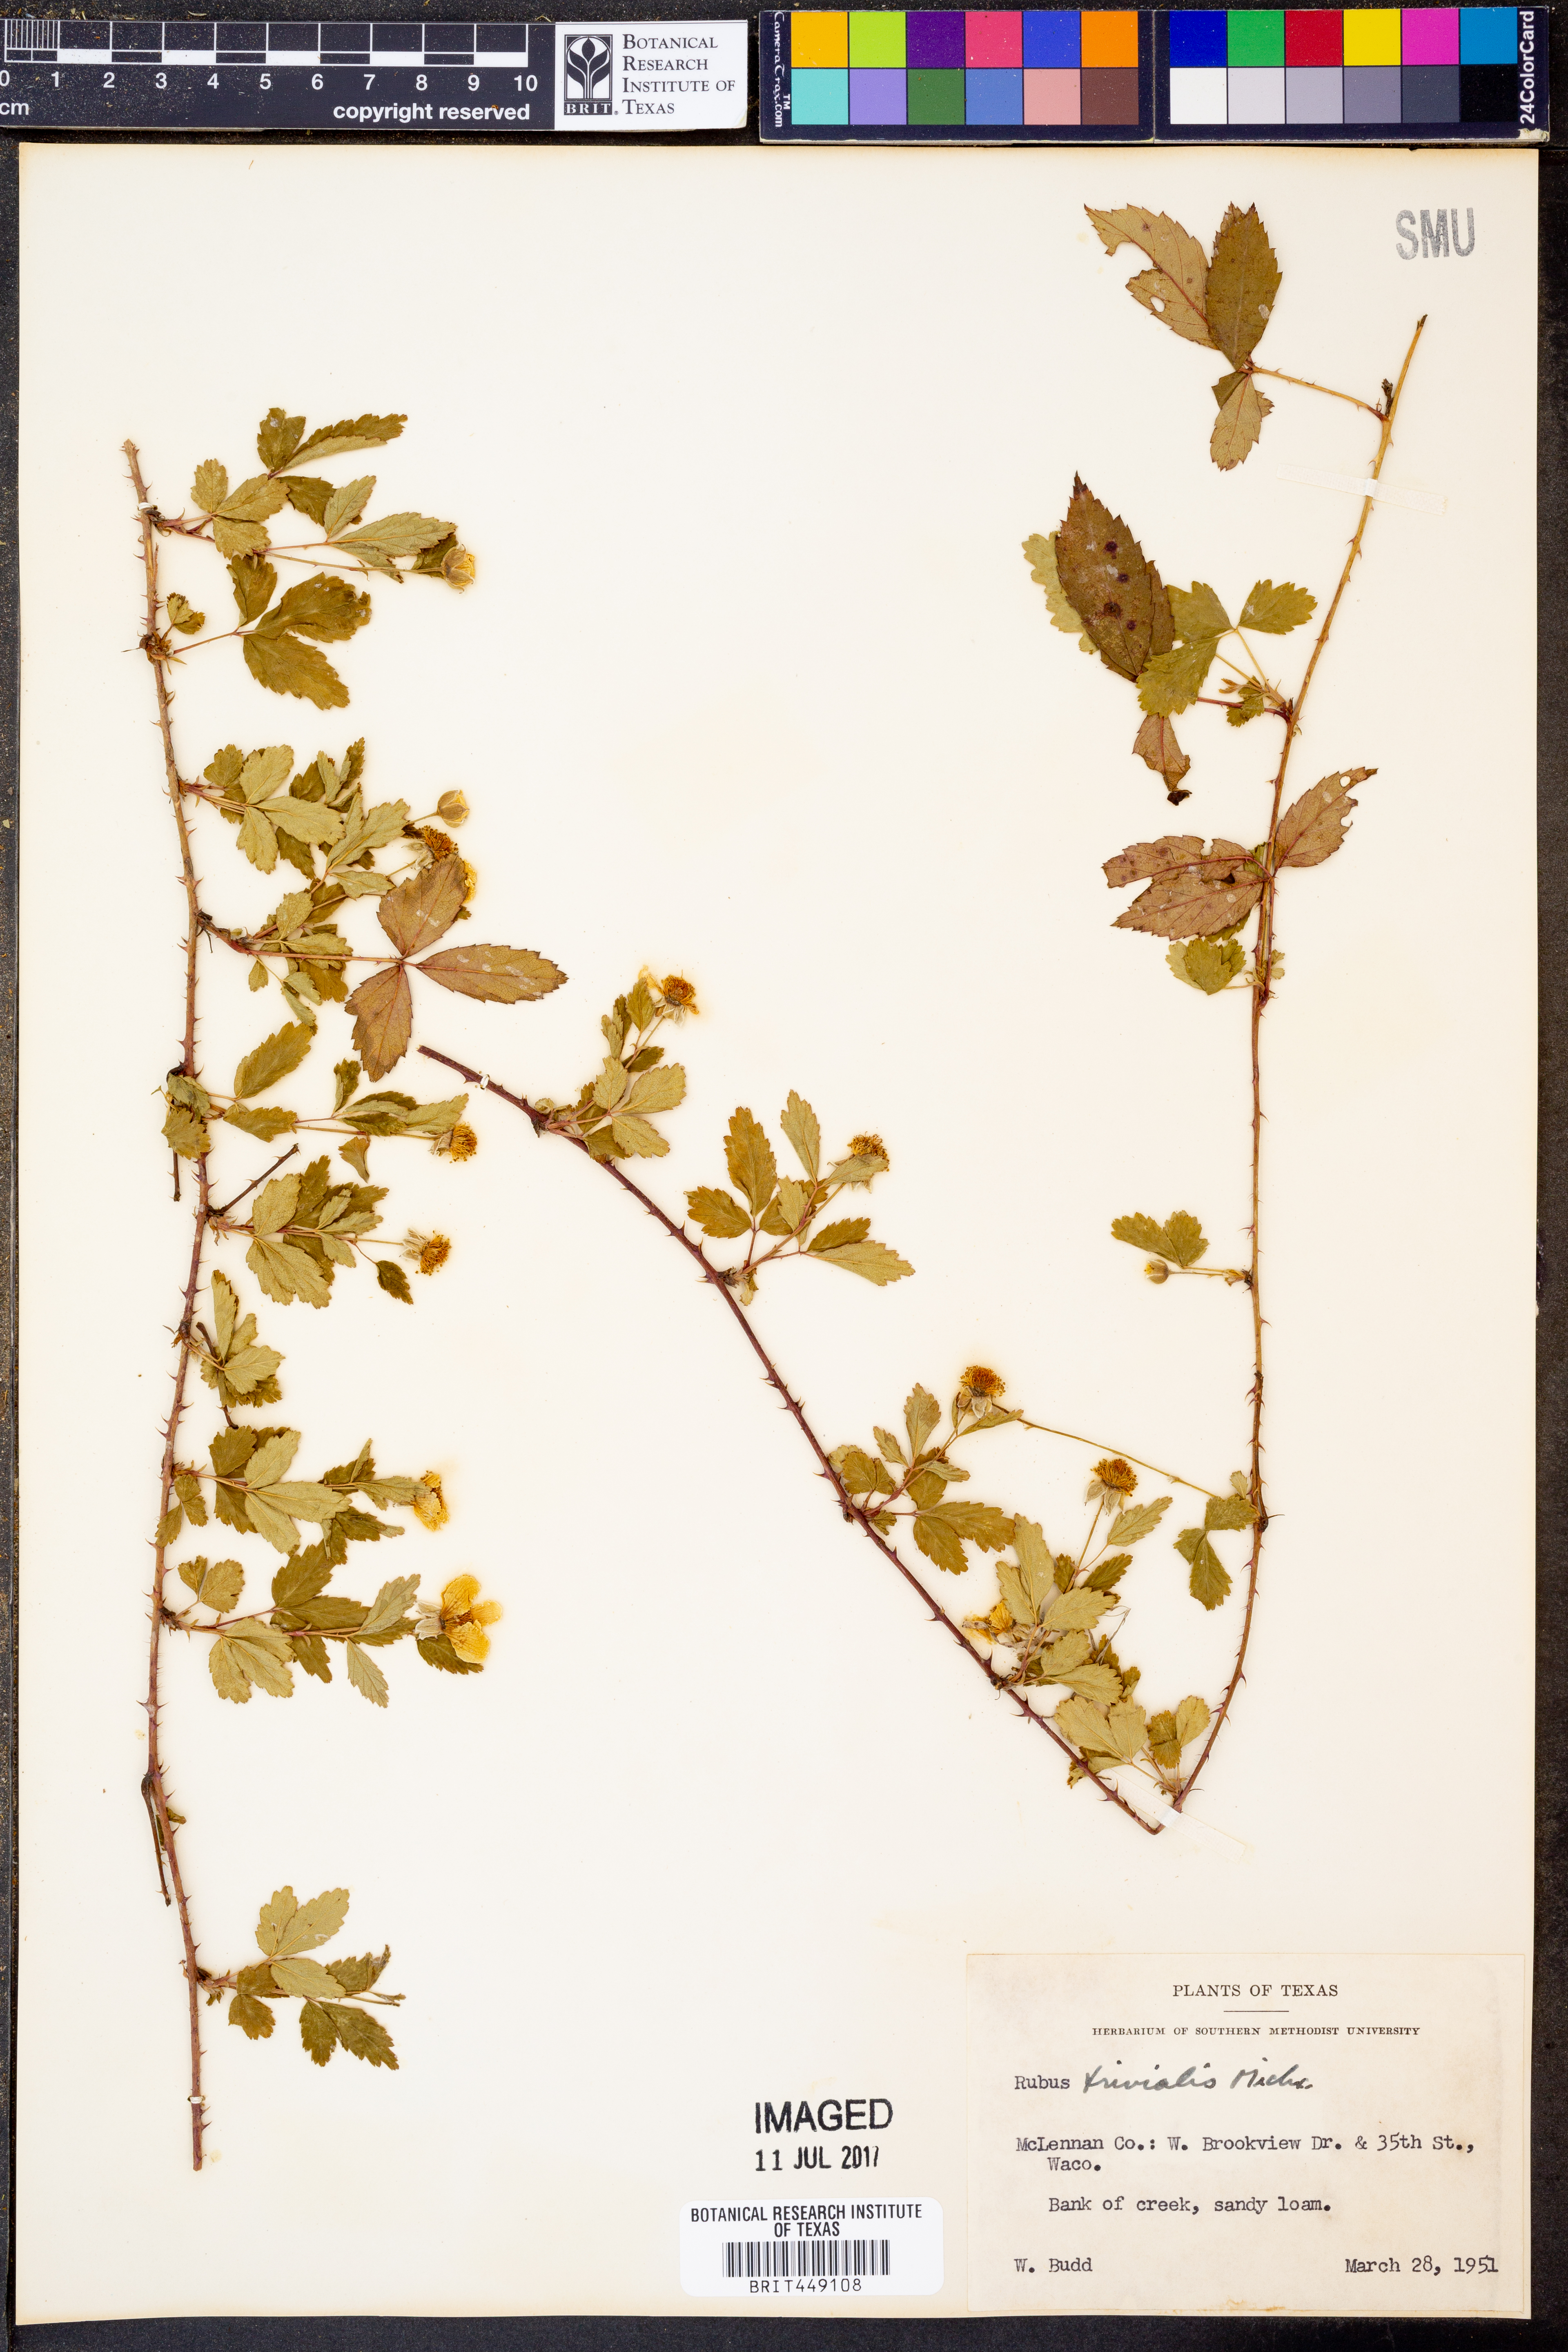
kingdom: Plantae
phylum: Tracheophyta
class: Magnoliopsida
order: Rosales
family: Rosaceae
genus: Rubus
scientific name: Rubus trivialis
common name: Southern dewberry
